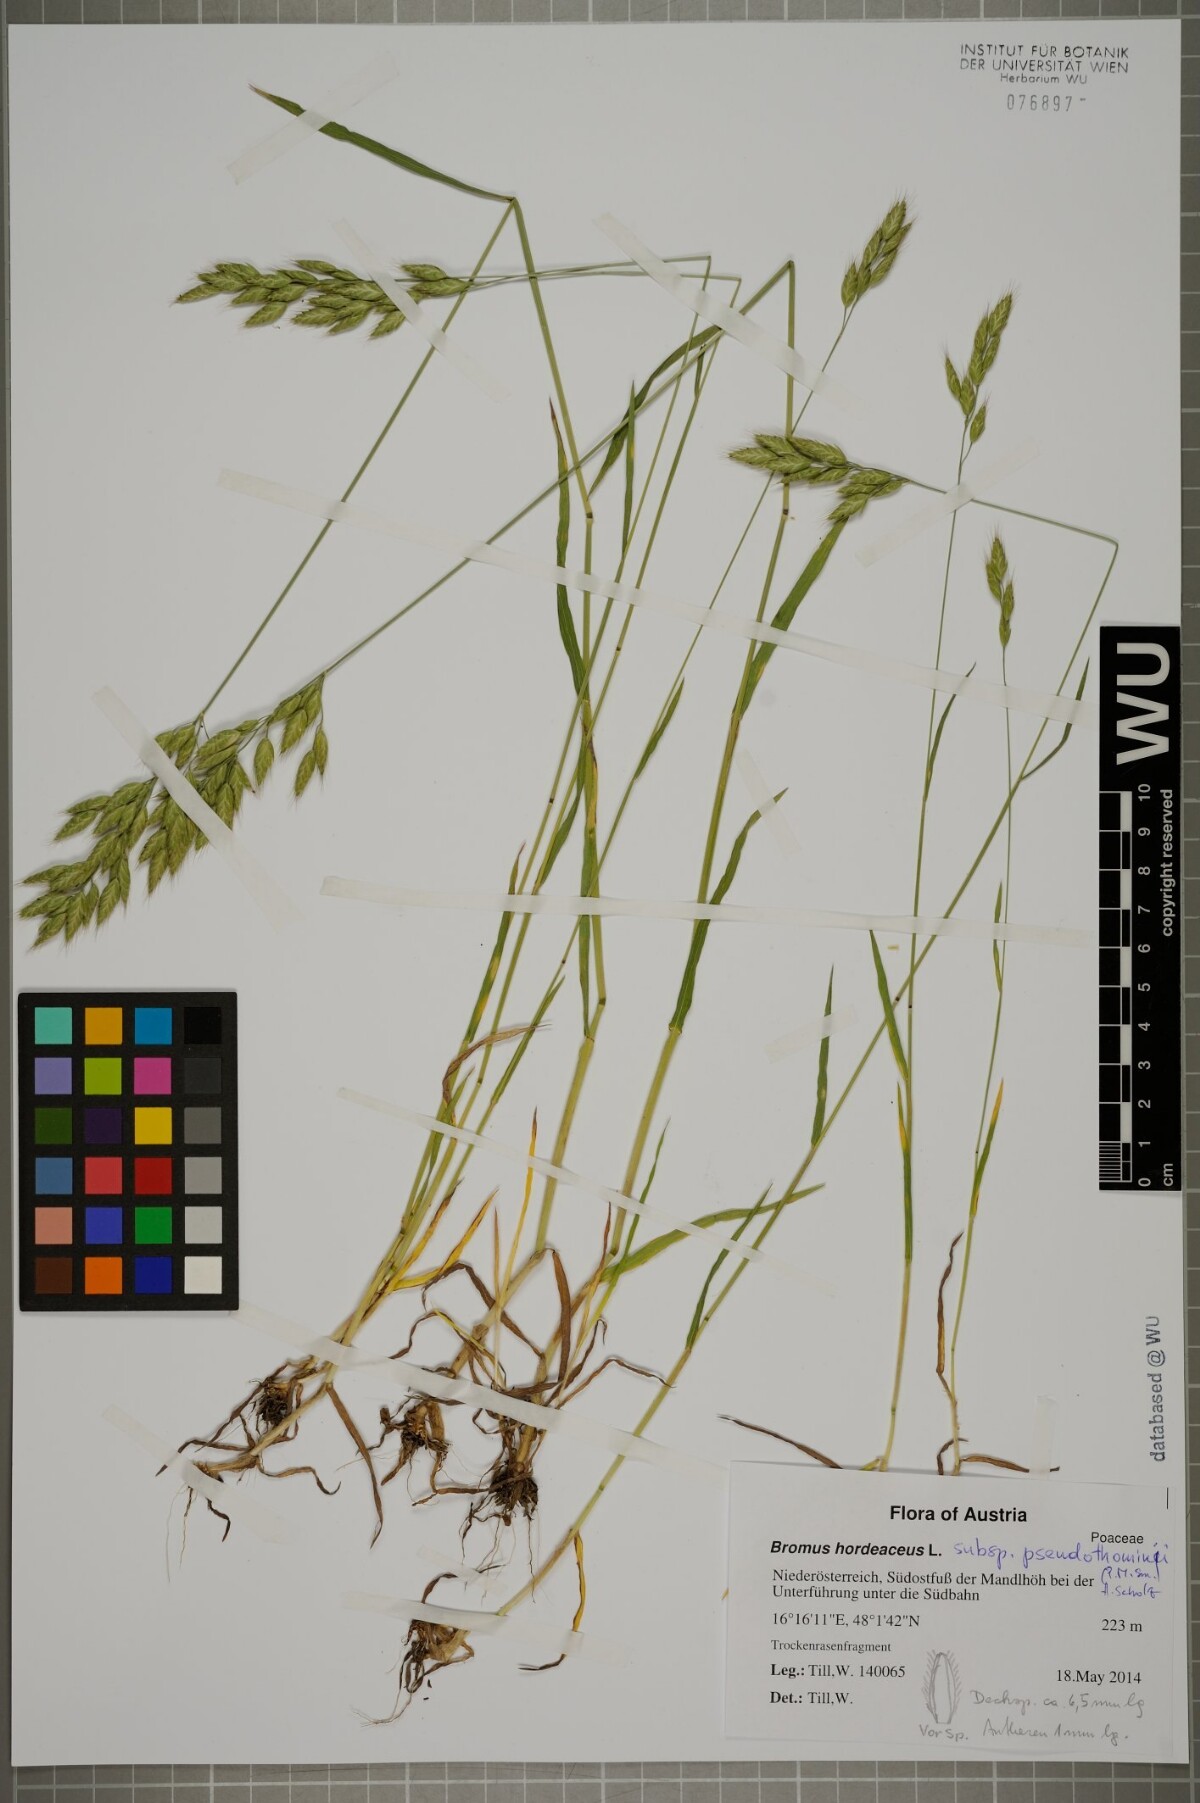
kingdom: Plantae
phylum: Tracheophyta
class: Liliopsida
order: Poales
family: Poaceae
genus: Bromus
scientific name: Bromus ferronii
